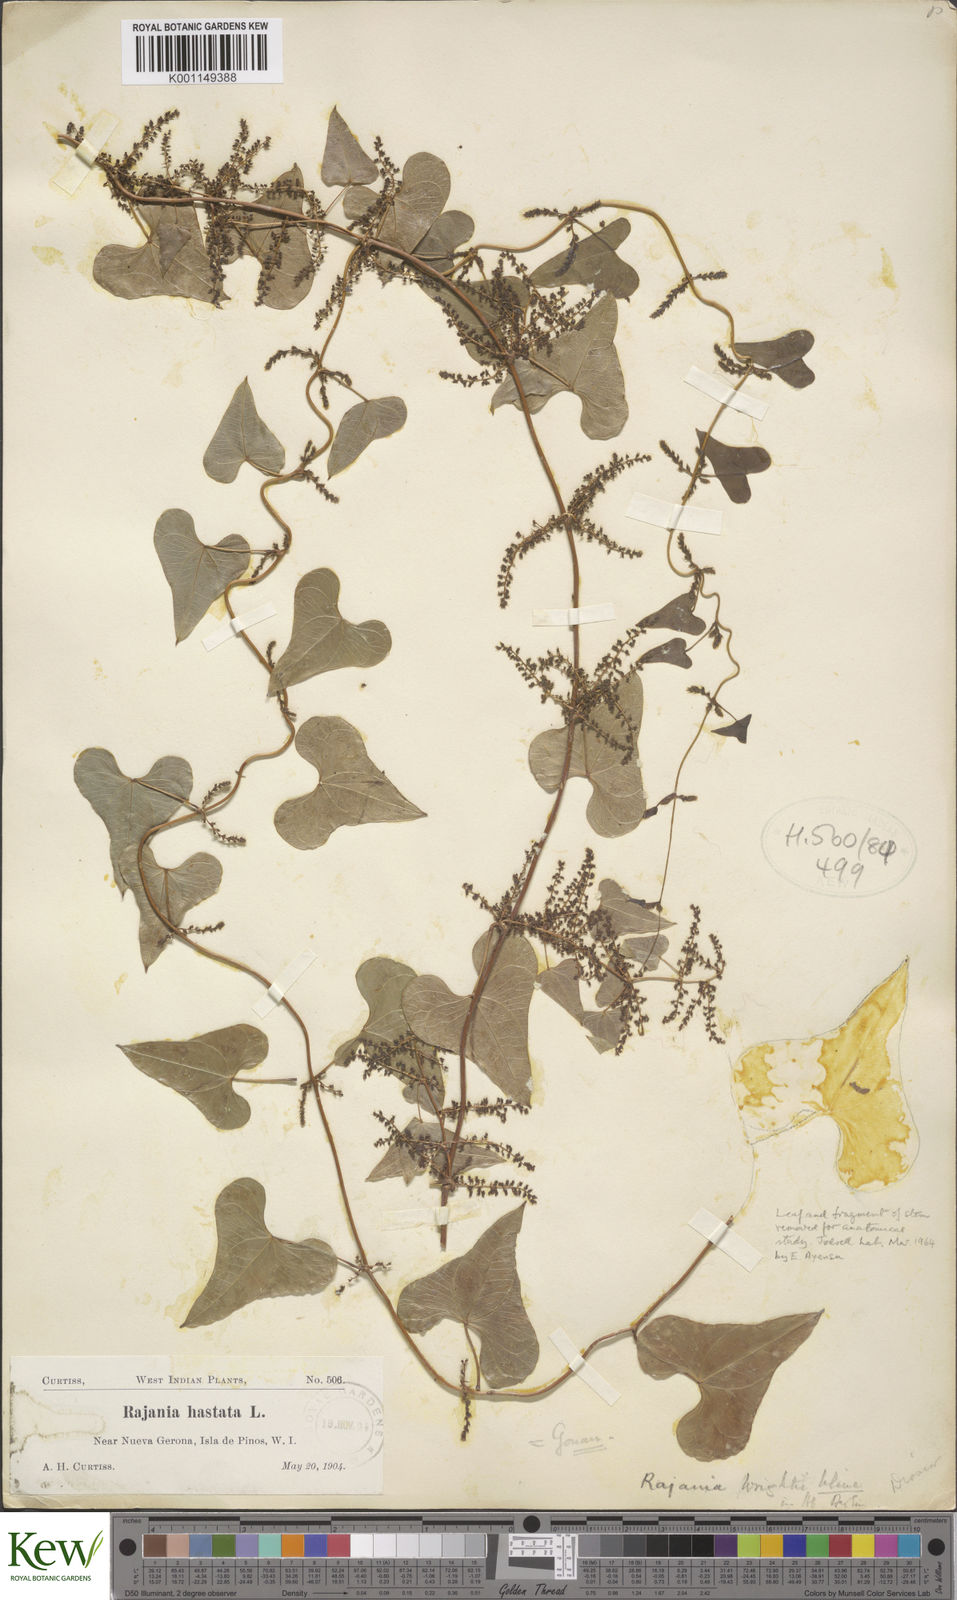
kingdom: Plantae
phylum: Tracheophyta
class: Liliopsida
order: Dioscoreales
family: Dioscoreaceae
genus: Dioscorea
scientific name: Dioscorea wrightii
